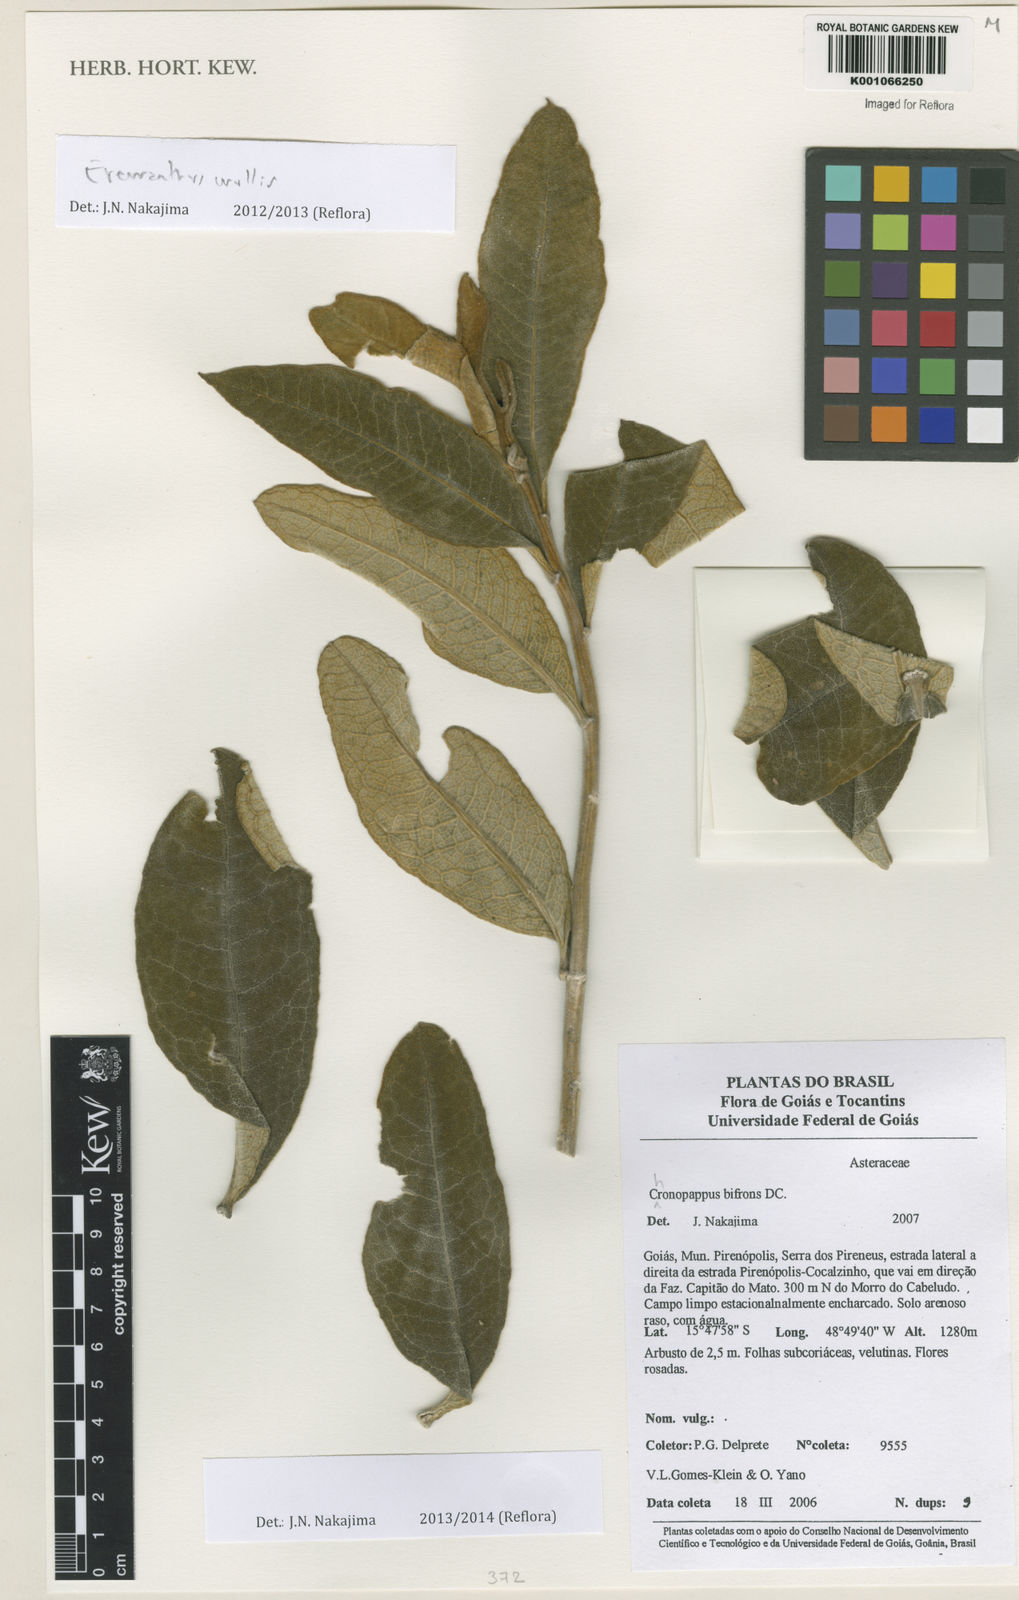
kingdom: Plantae
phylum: Tracheophyta
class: Magnoliopsida
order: Asterales
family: Asteraceae
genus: Eremanthus
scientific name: Eremanthus mollis
